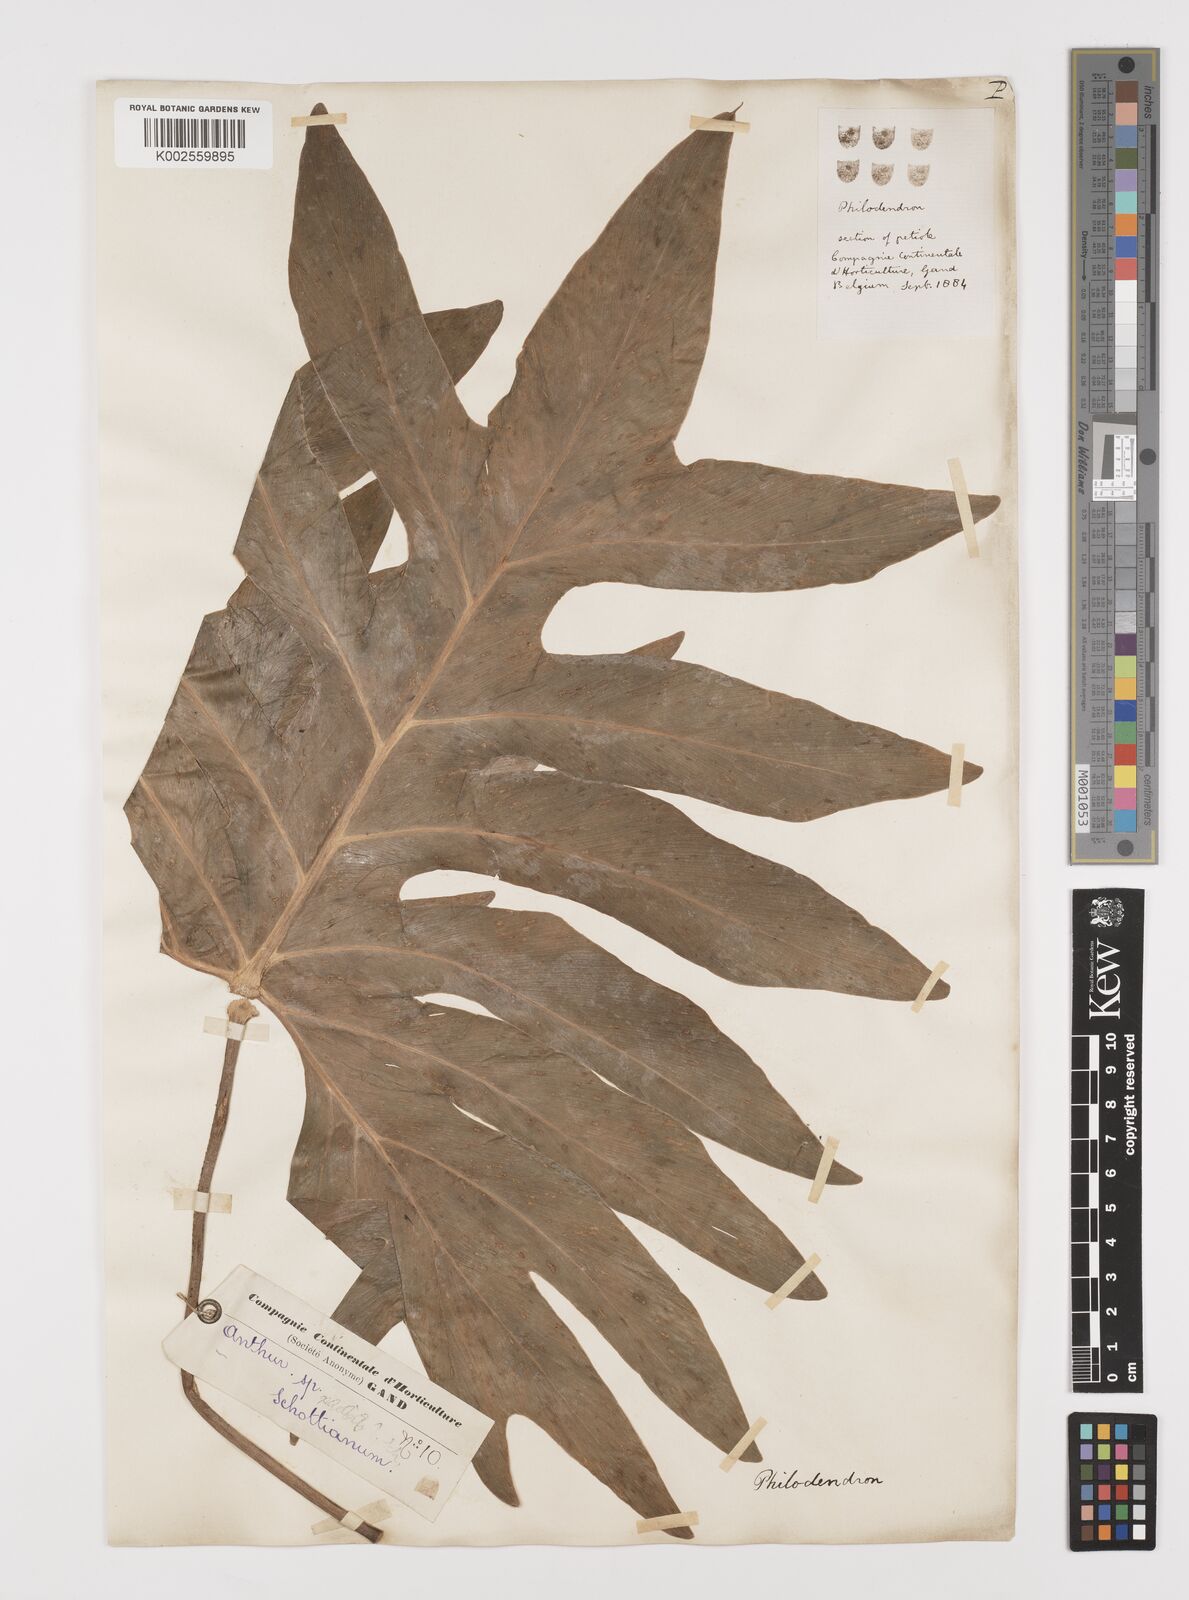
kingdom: Plantae
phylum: Tracheophyta
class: Liliopsida
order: Alismatales
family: Araceae
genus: Philodendron
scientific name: Philodendron
